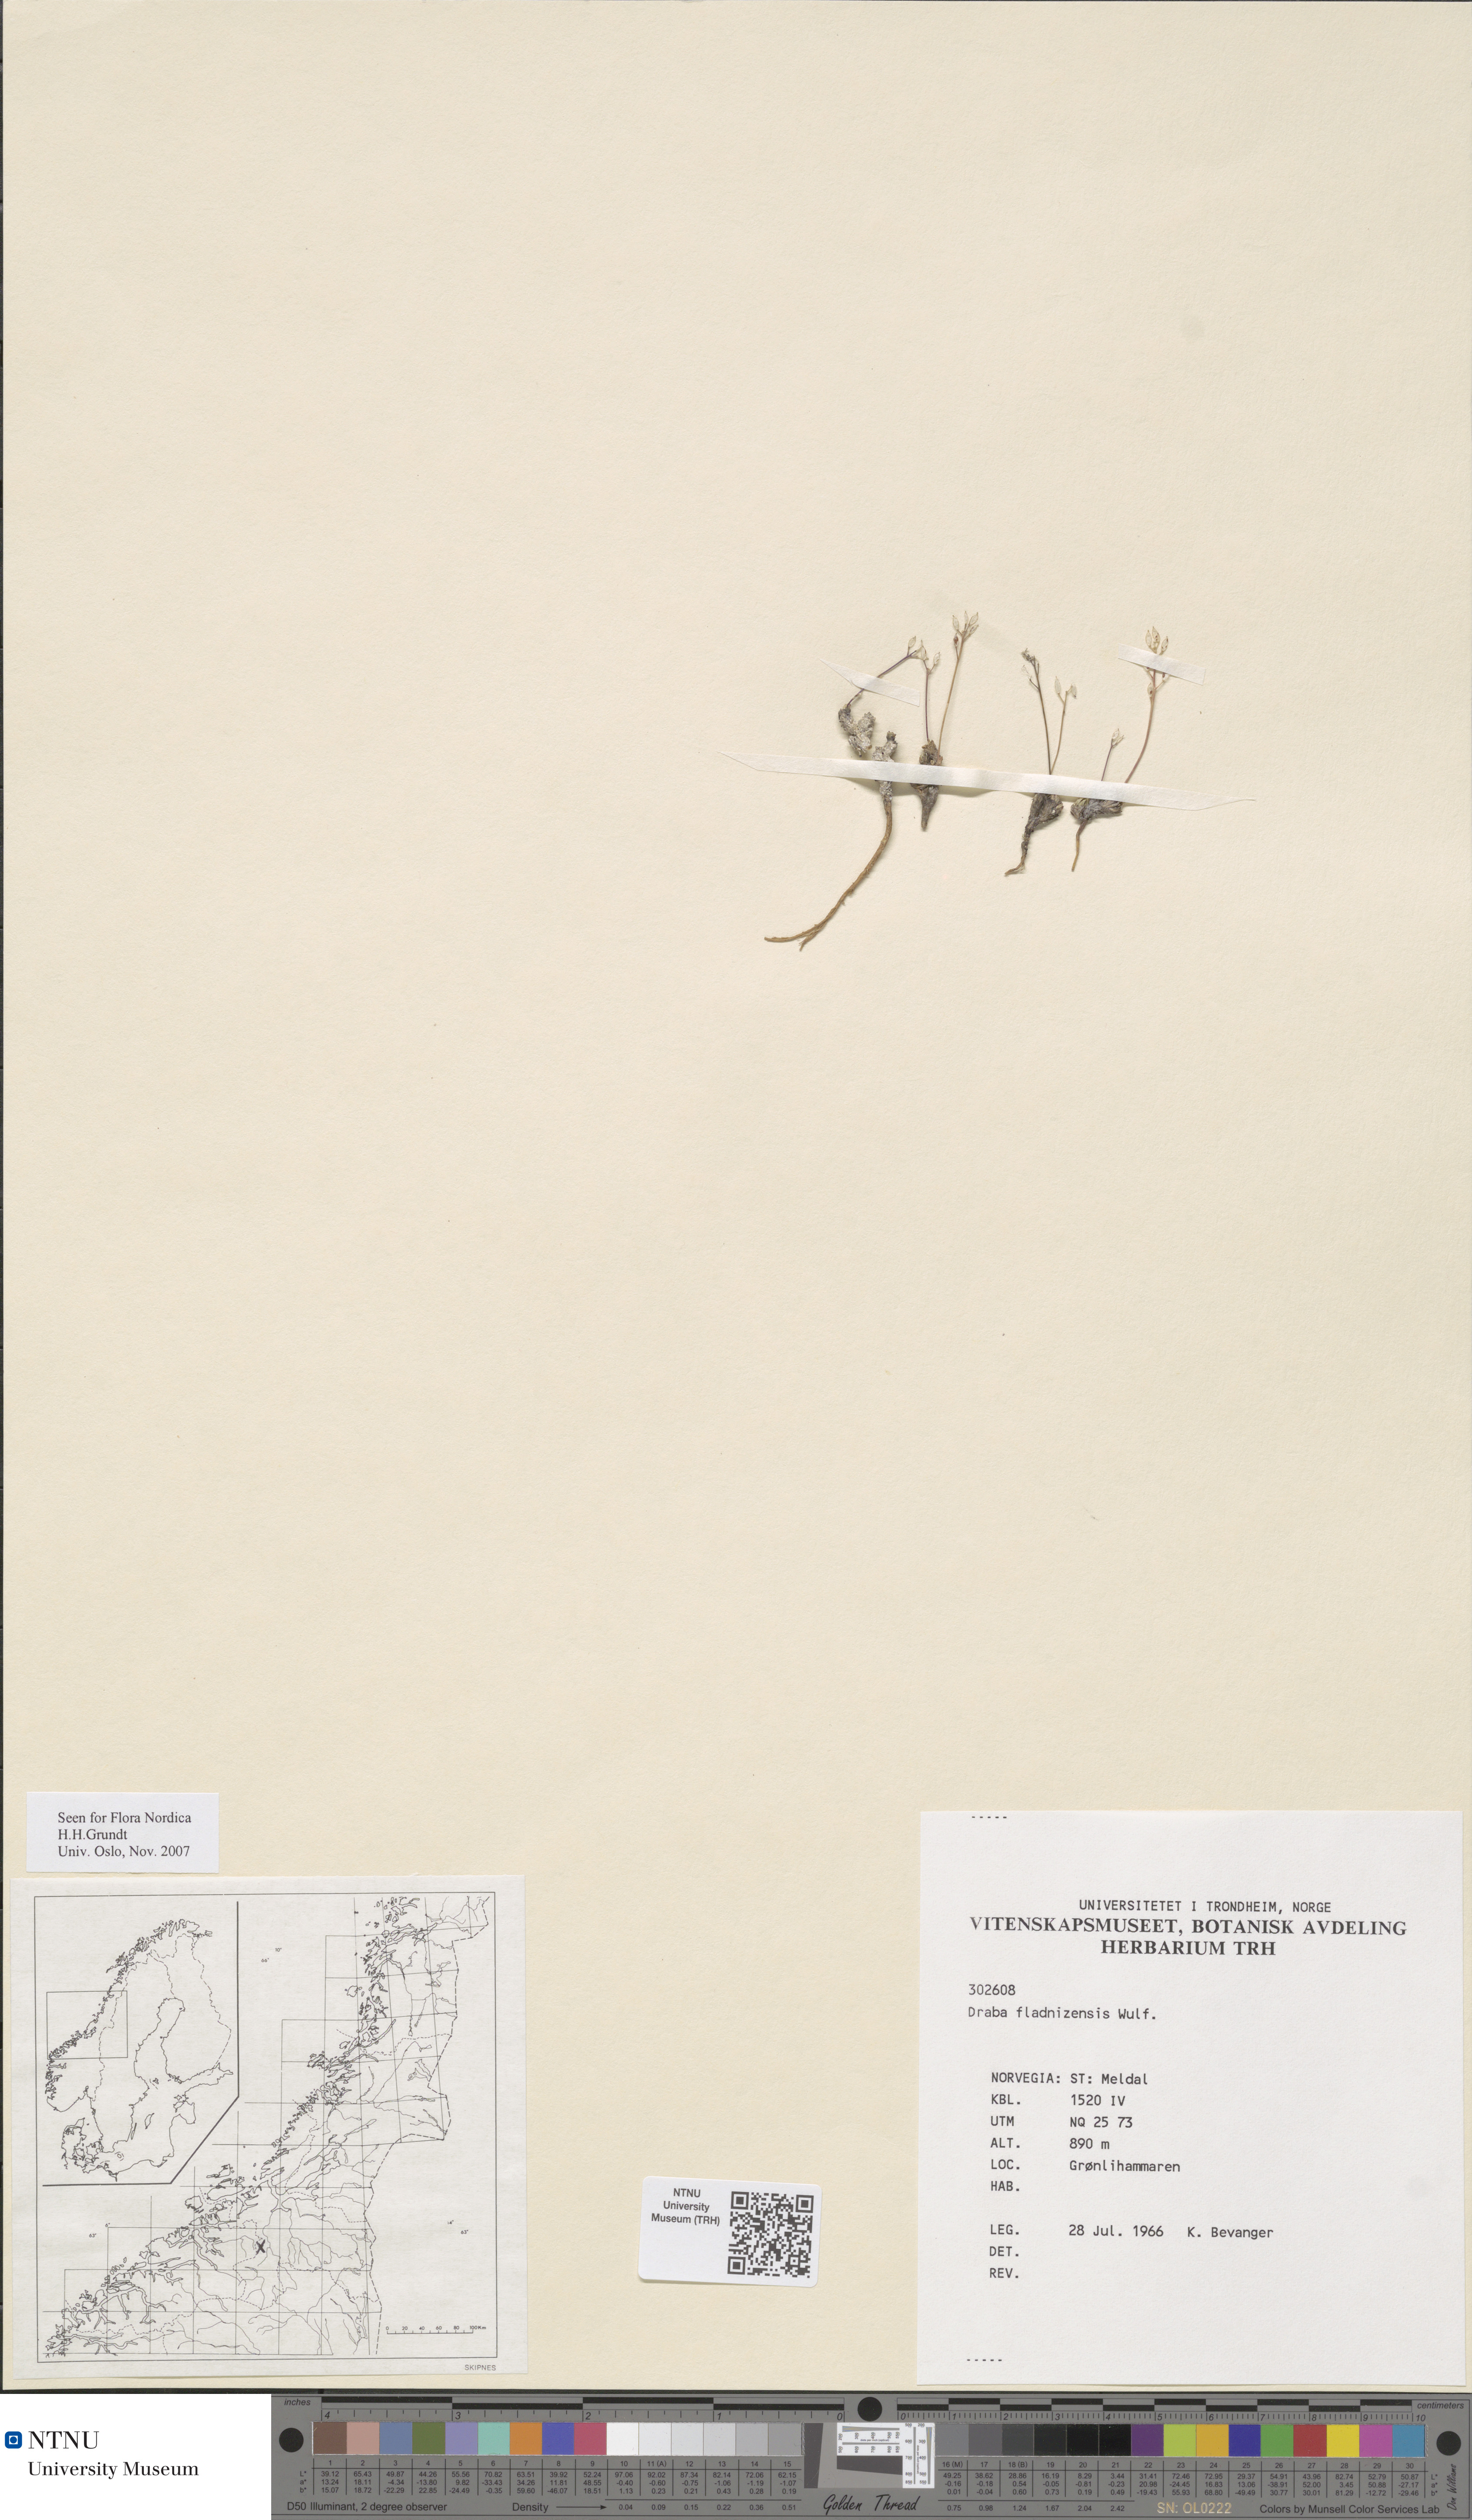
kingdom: Plantae
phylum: Tracheophyta
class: Magnoliopsida
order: Brassicales
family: Brassicaceae
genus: Draba
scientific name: Draba fladnizensis
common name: Austrian draba
